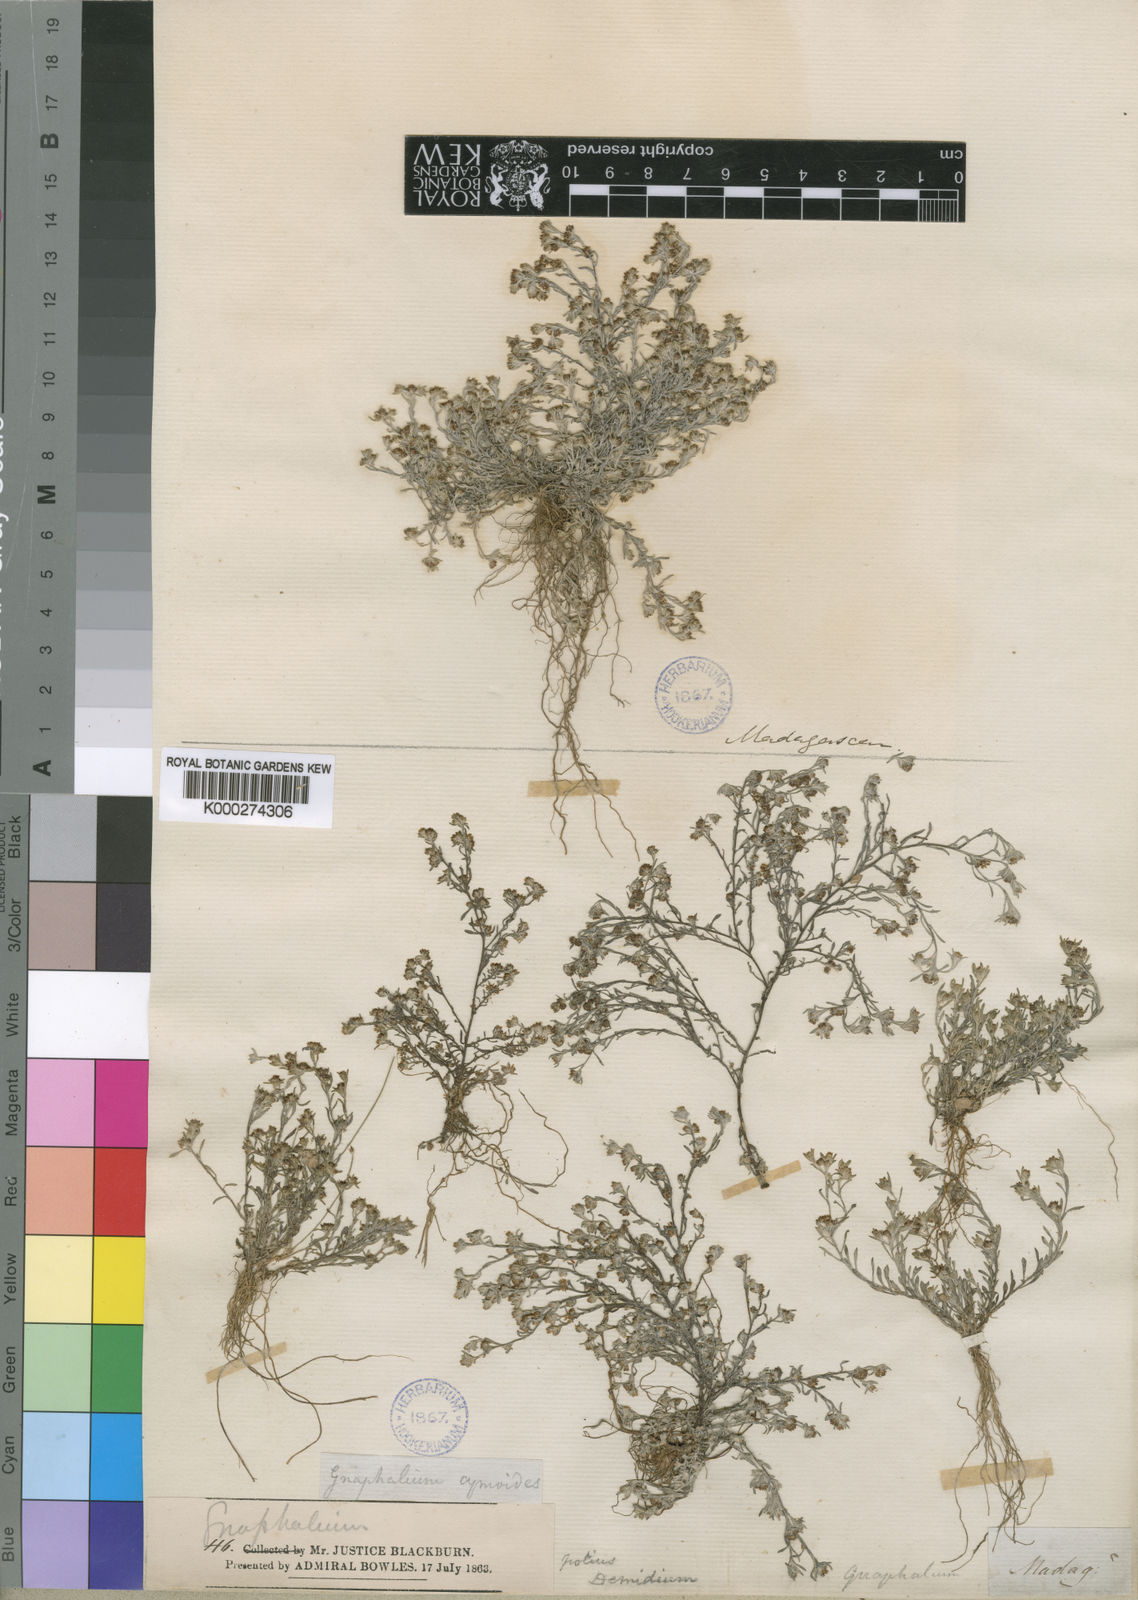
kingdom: Plantae
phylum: Tracheophyta
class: Magnoliopsida
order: Asterales
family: Asteraceae
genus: Gnaphalium
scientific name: Gnaphalium
